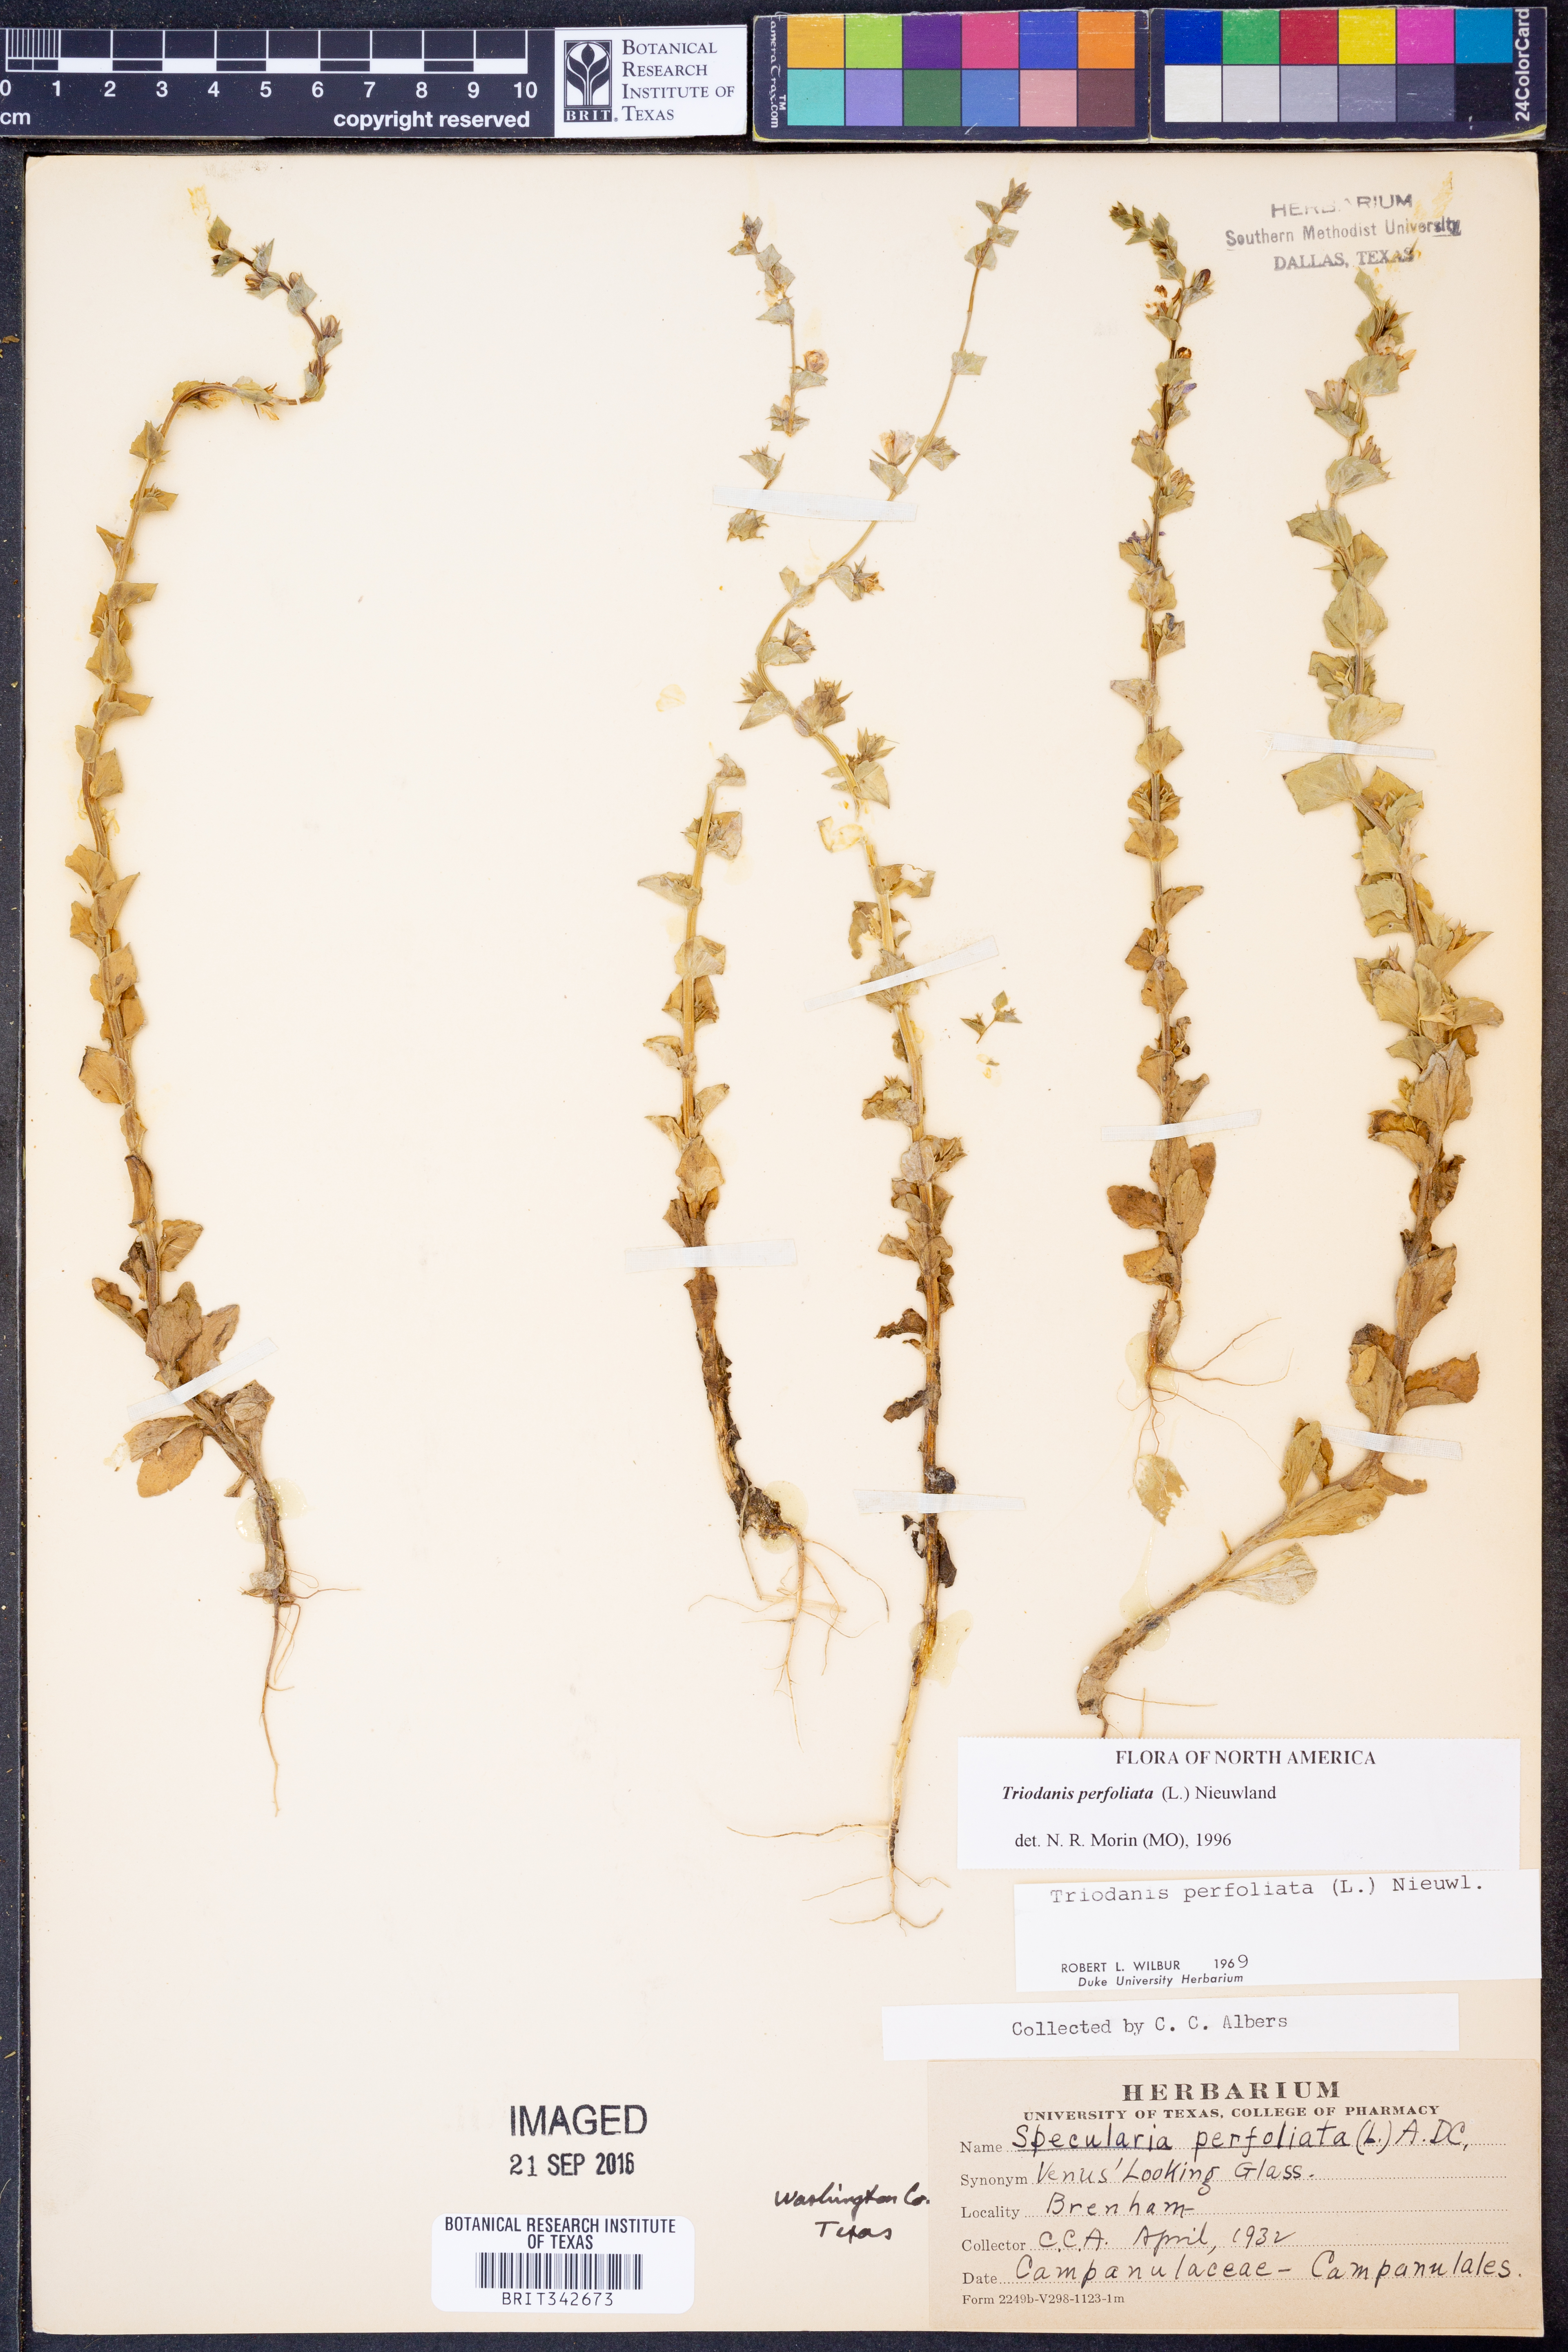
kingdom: Plantae
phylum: Tracheophyta
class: Magnoliopsida
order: Asterales
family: Campanulaceae
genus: Triodanis
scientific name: Triodanis perfoliata
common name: Clasping venus' looking-glass
